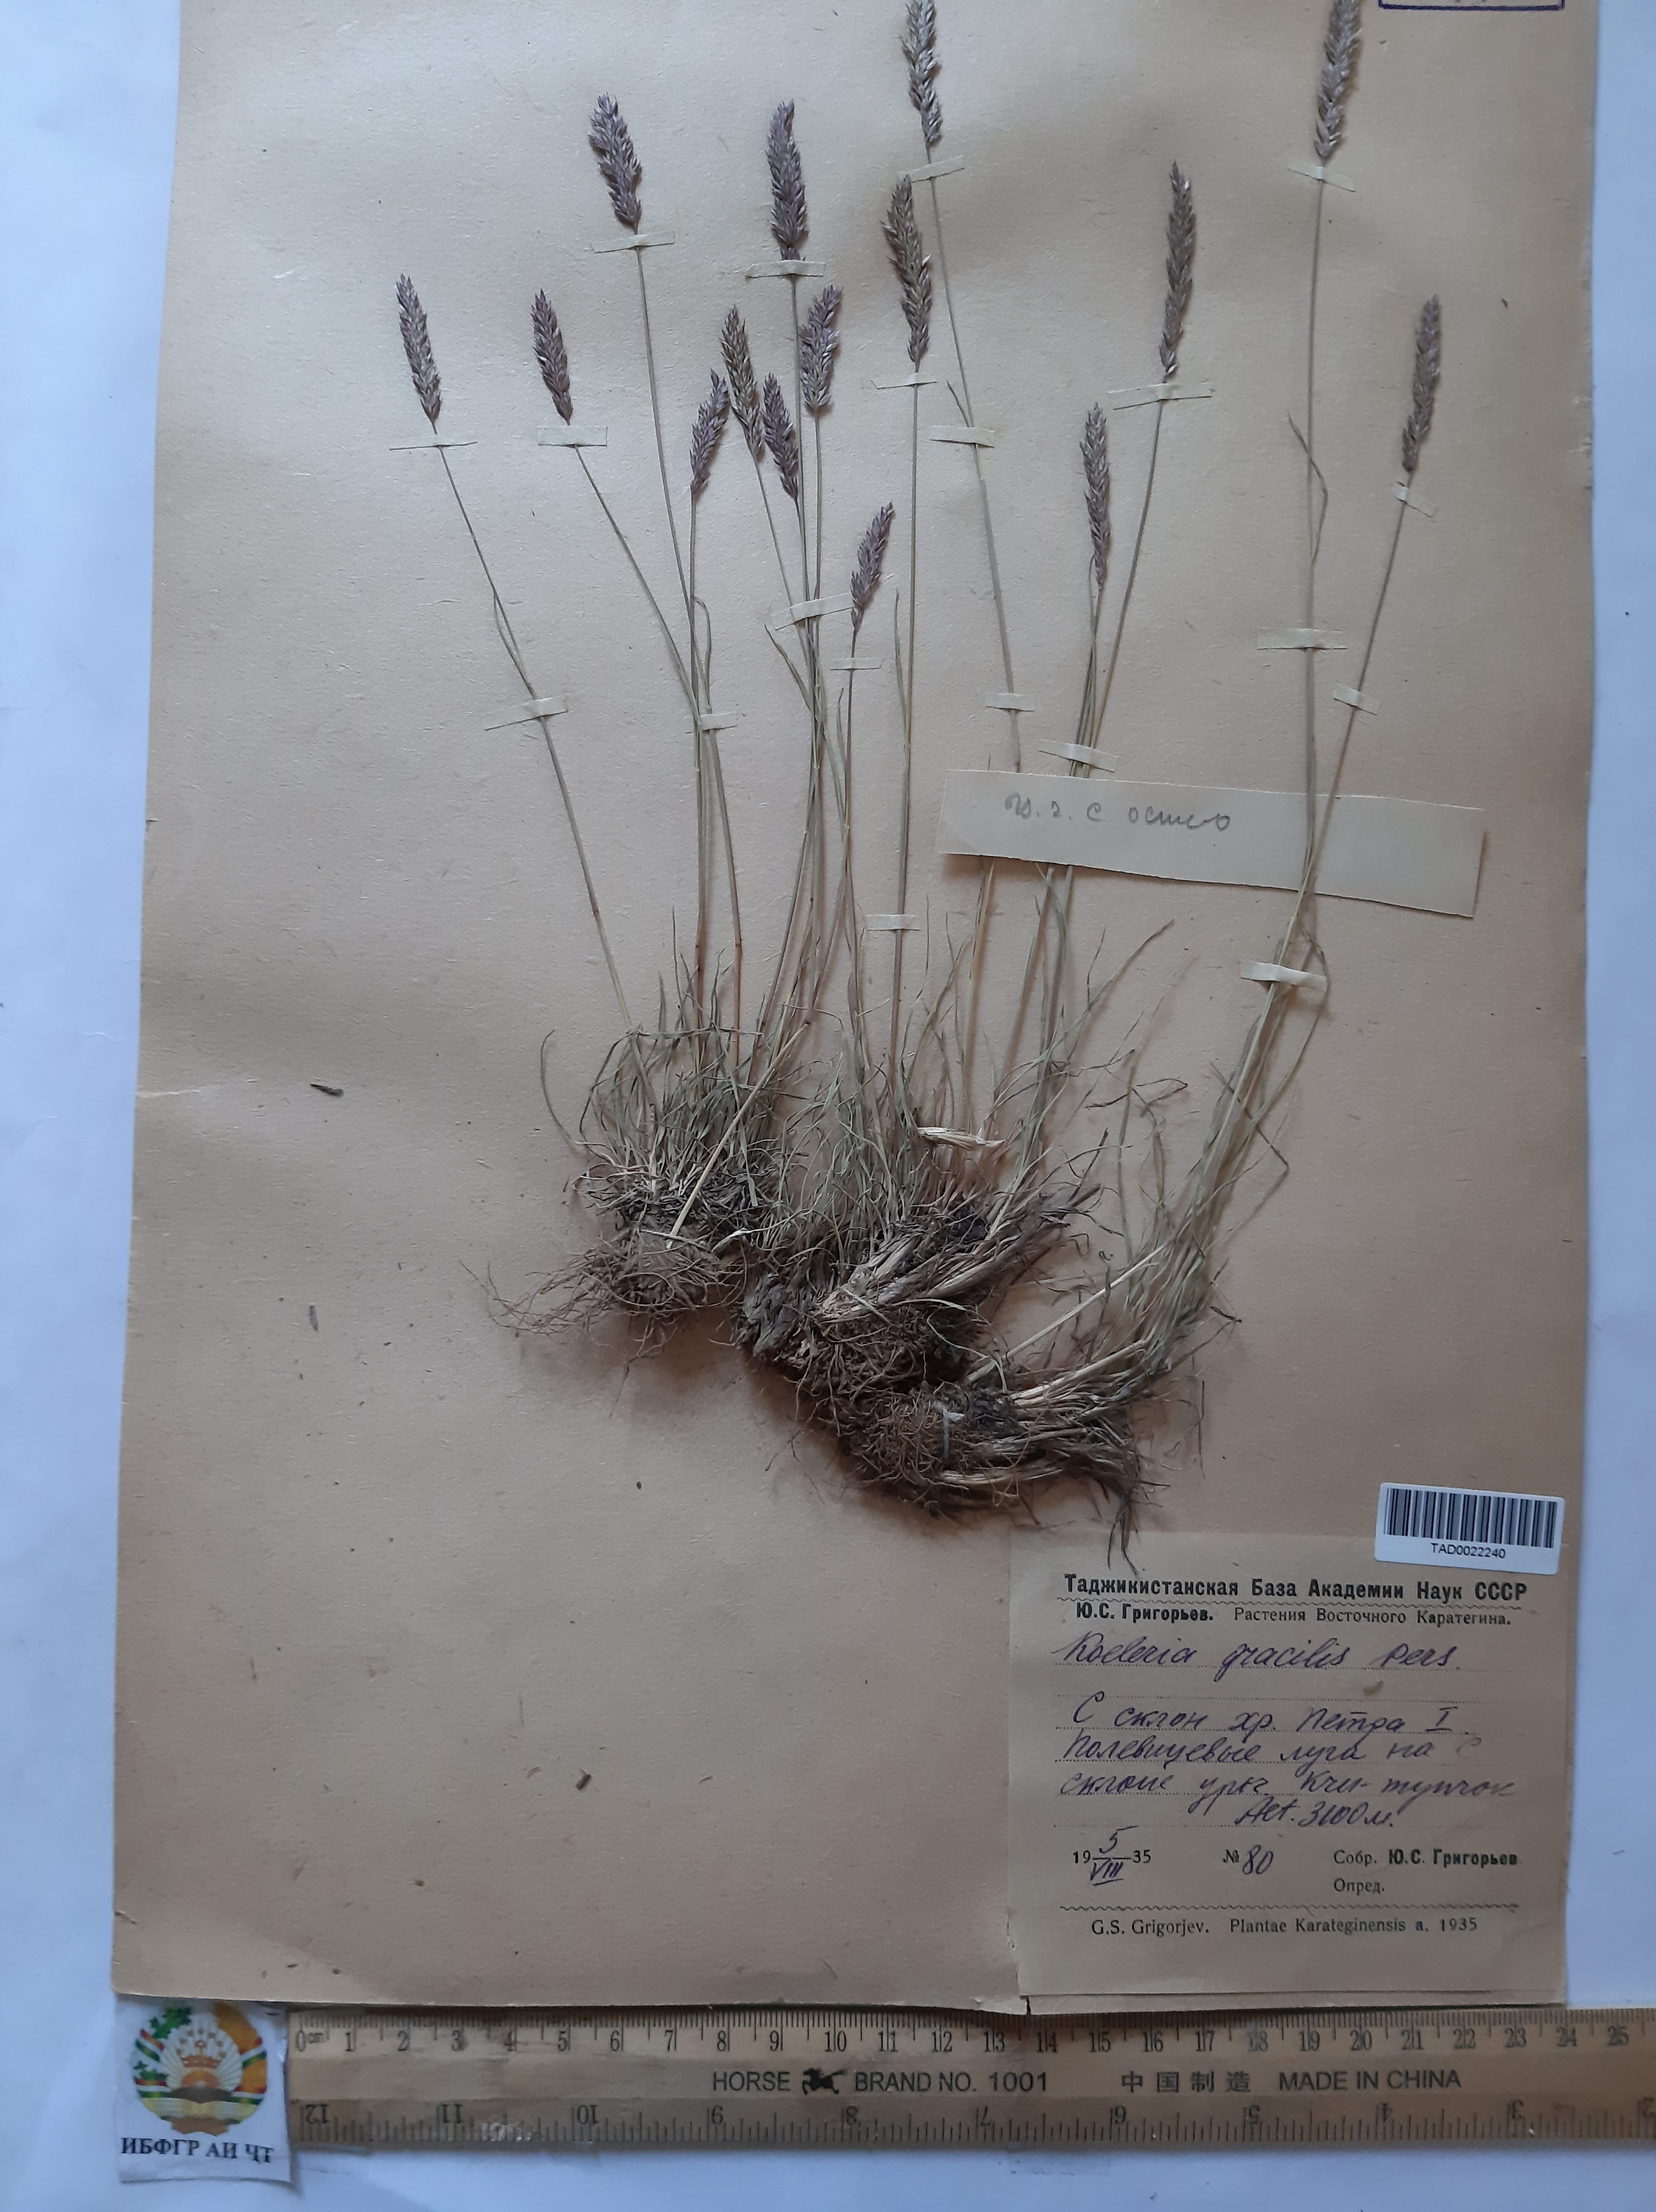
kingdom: Plantae
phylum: Tracheophyta
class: Liliopsida
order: Poales
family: Poaceae
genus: Koeleria
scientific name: Koeleria macrantha
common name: Crested hair-grass
